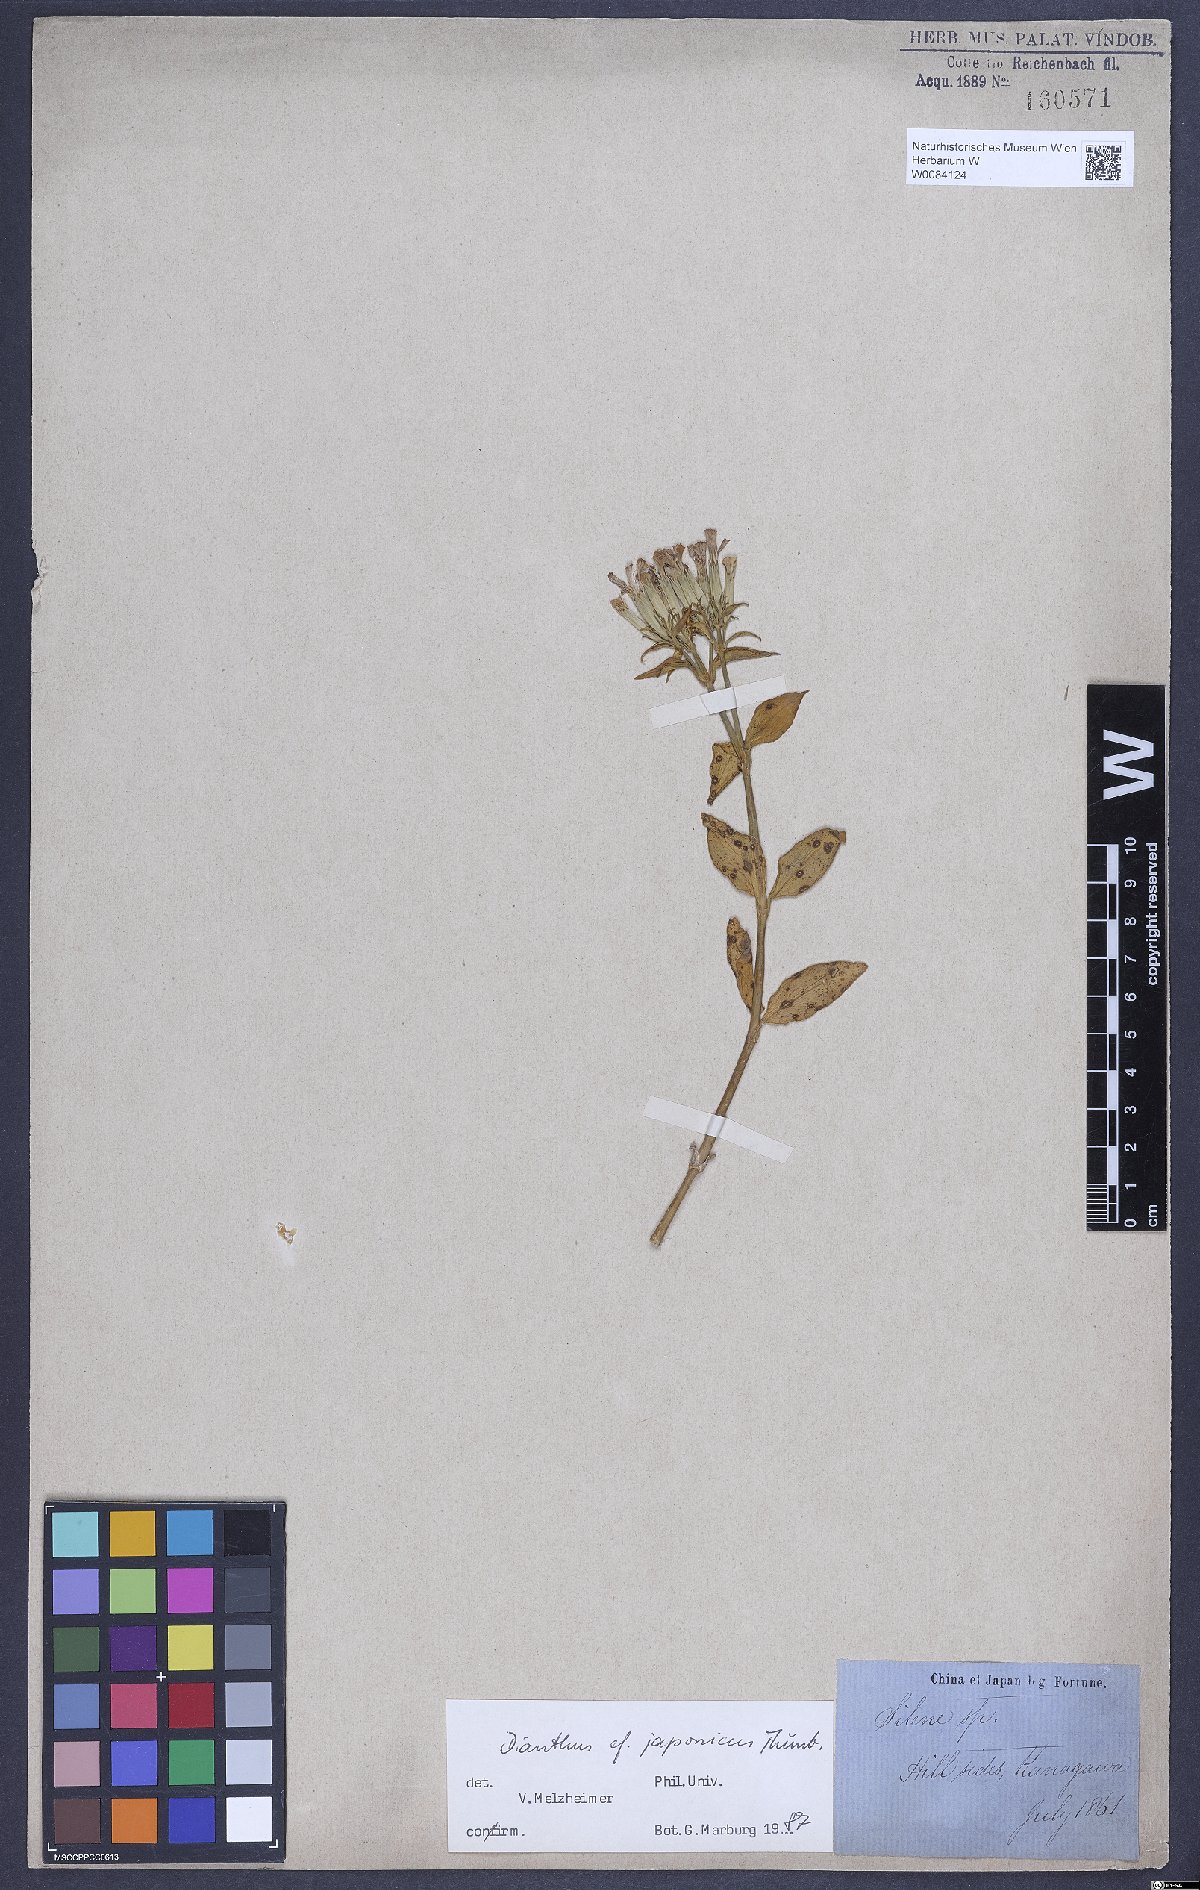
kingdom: Plantae
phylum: Tracheophyta
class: Magnoliopsida
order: Caryophyllales
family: Caryophyllaceae
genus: Dianthus
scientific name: Dianthus japonicus
